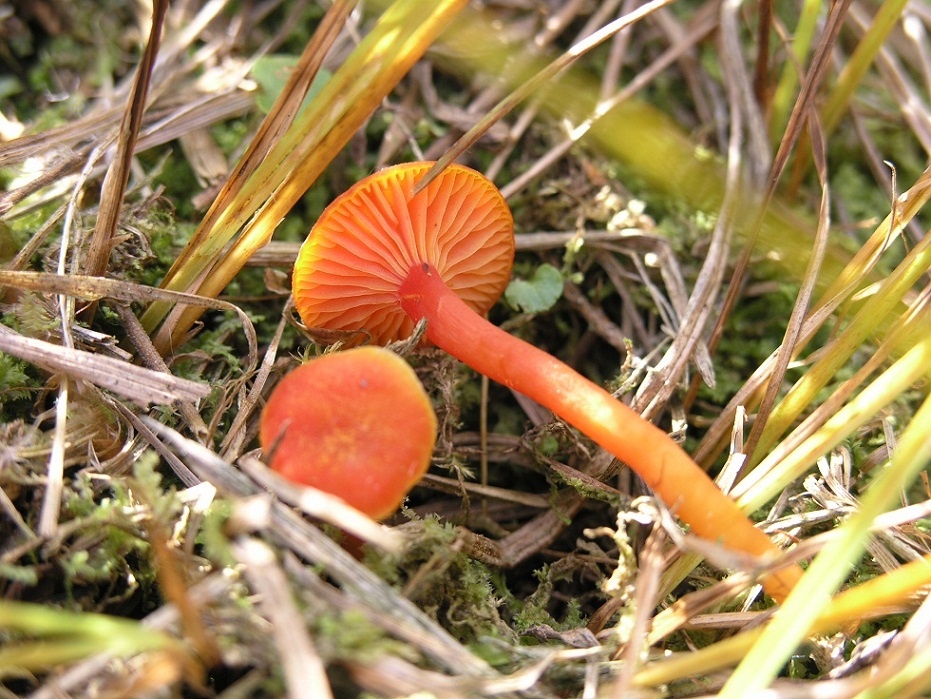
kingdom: Fungi
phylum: Basidiomycota
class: Agaricomycetes
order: Agaricales
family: Hygrophoraceae
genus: Hygrocybe
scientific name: Hygrocybe
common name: vokshat
